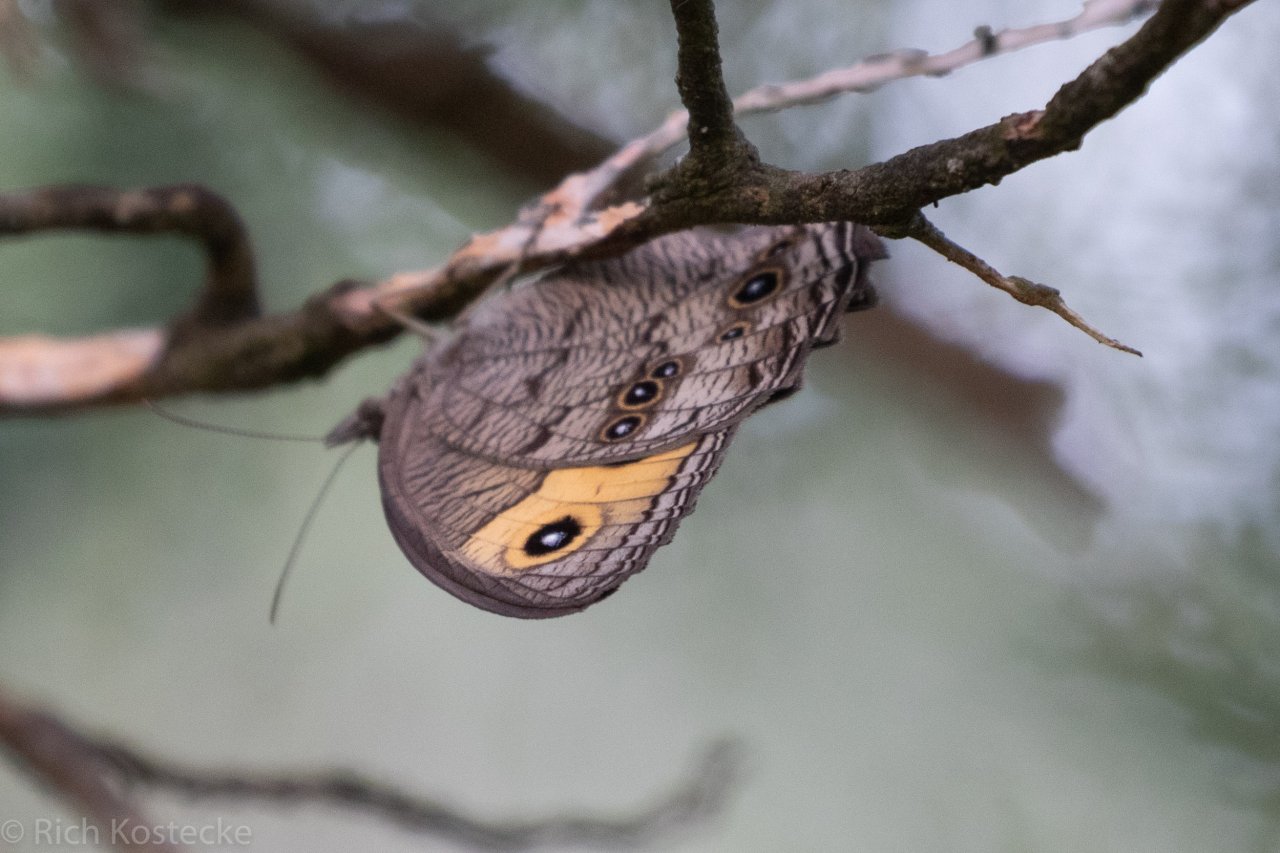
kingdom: Animalia
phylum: Arthropoda
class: Insecta
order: Lepidoptera
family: Nymphalidae
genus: Cercyonis
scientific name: Cercyonis pegala
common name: Common Wood-Nymph
